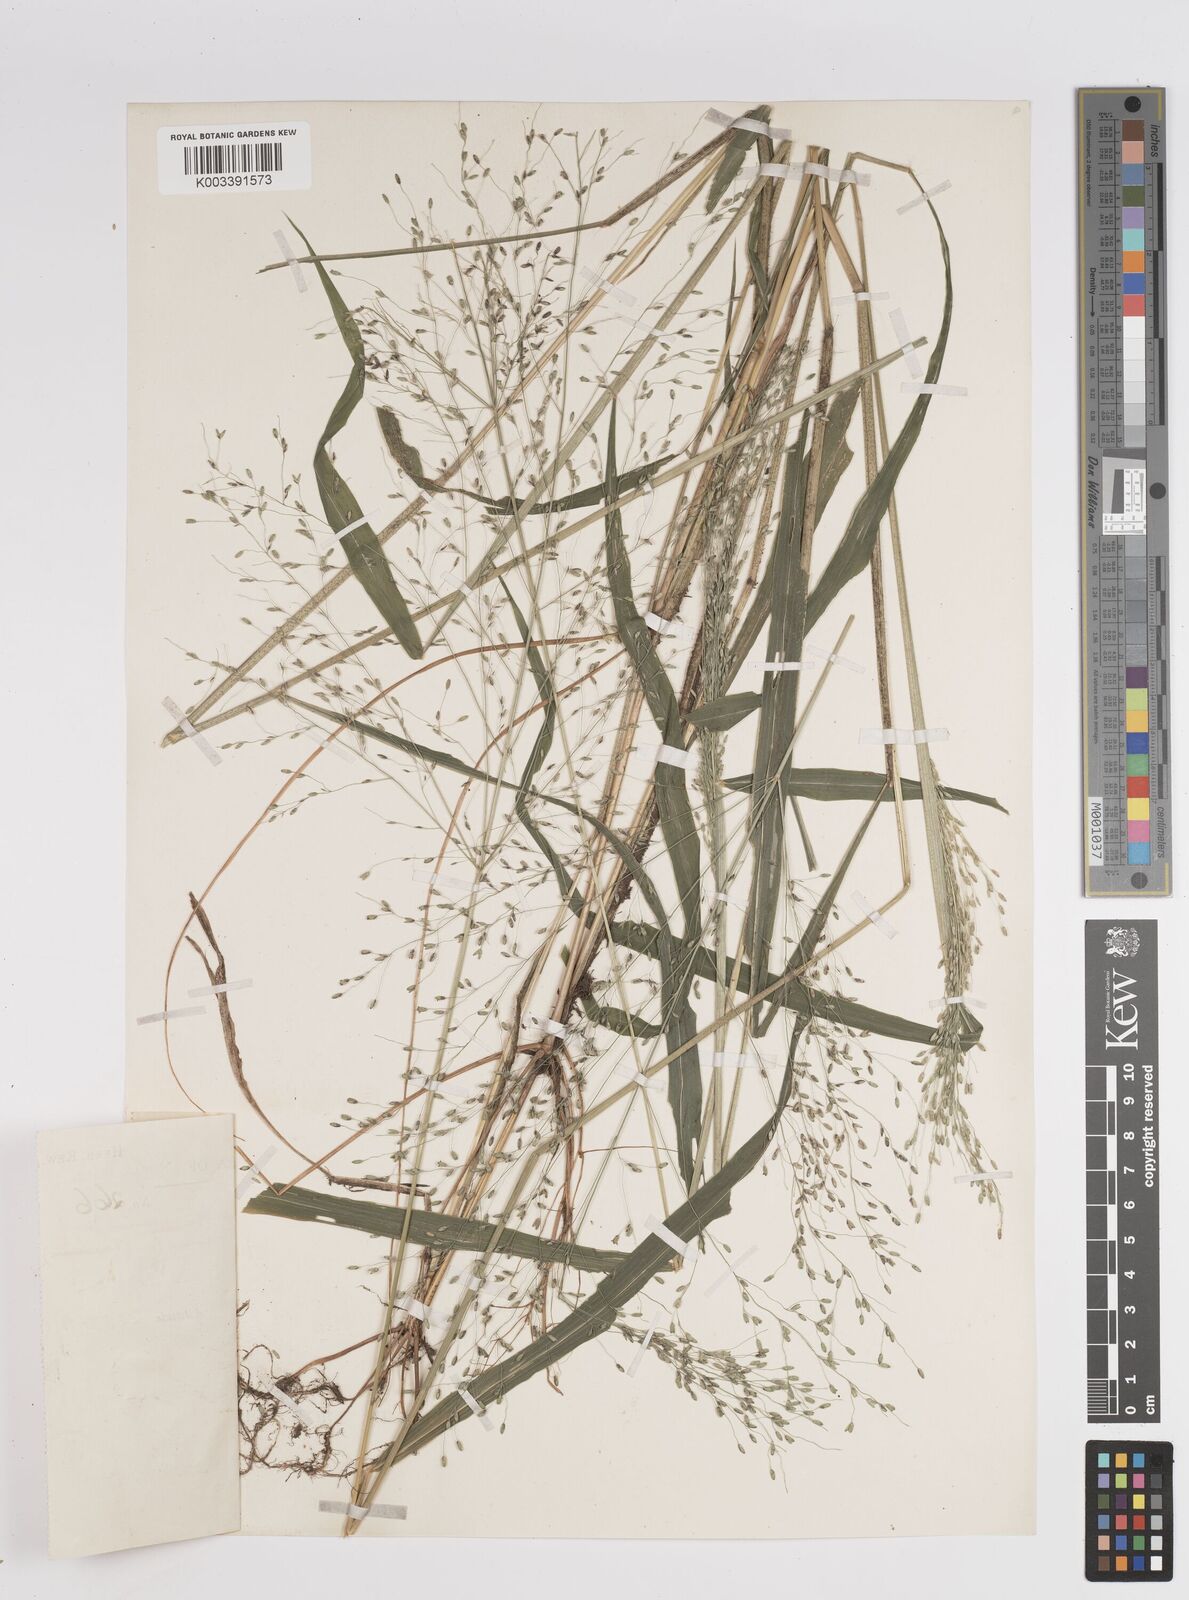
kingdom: Plantae
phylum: Tracheophyta
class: Liliopsida
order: Poales
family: Poaceae
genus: Megathyrsus
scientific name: Megathyrsus maximus
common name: Guineagrass
